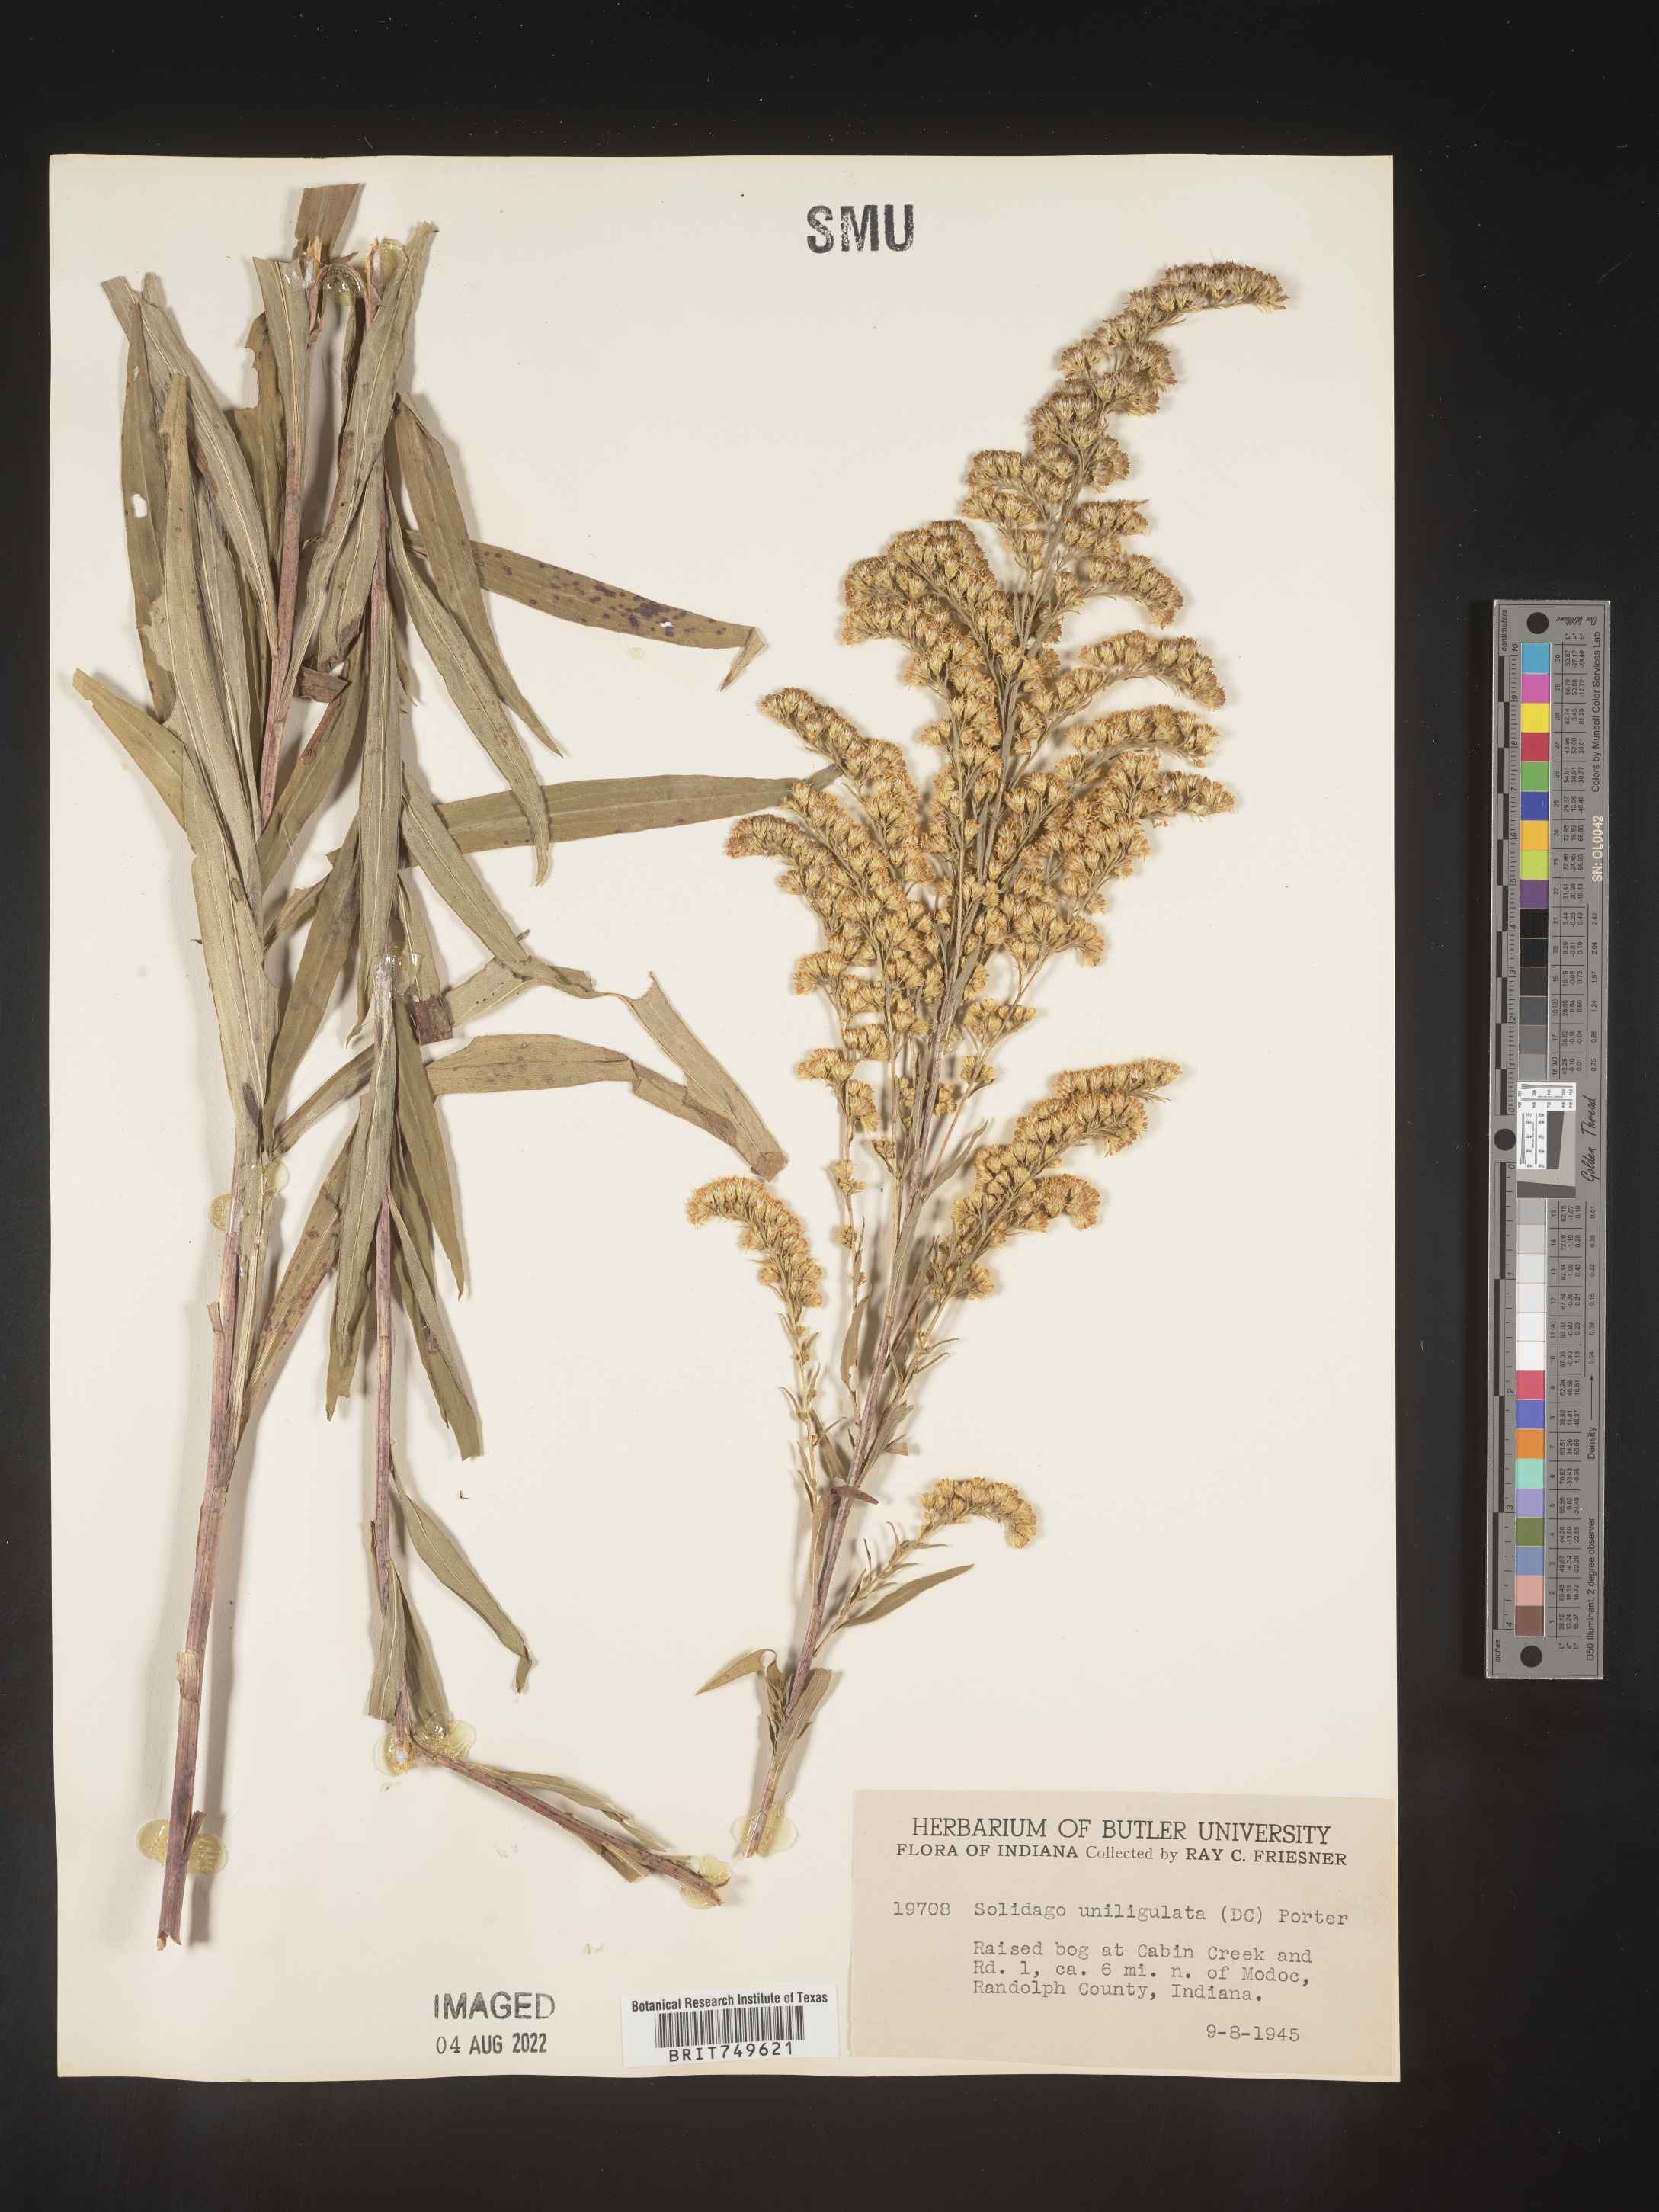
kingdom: Plantae
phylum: Tracheophyta
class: Magnoliopsida
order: Asterales
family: Asteraceae
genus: Solidago
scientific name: Solidago uliginosa
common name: Bog goldenrod
